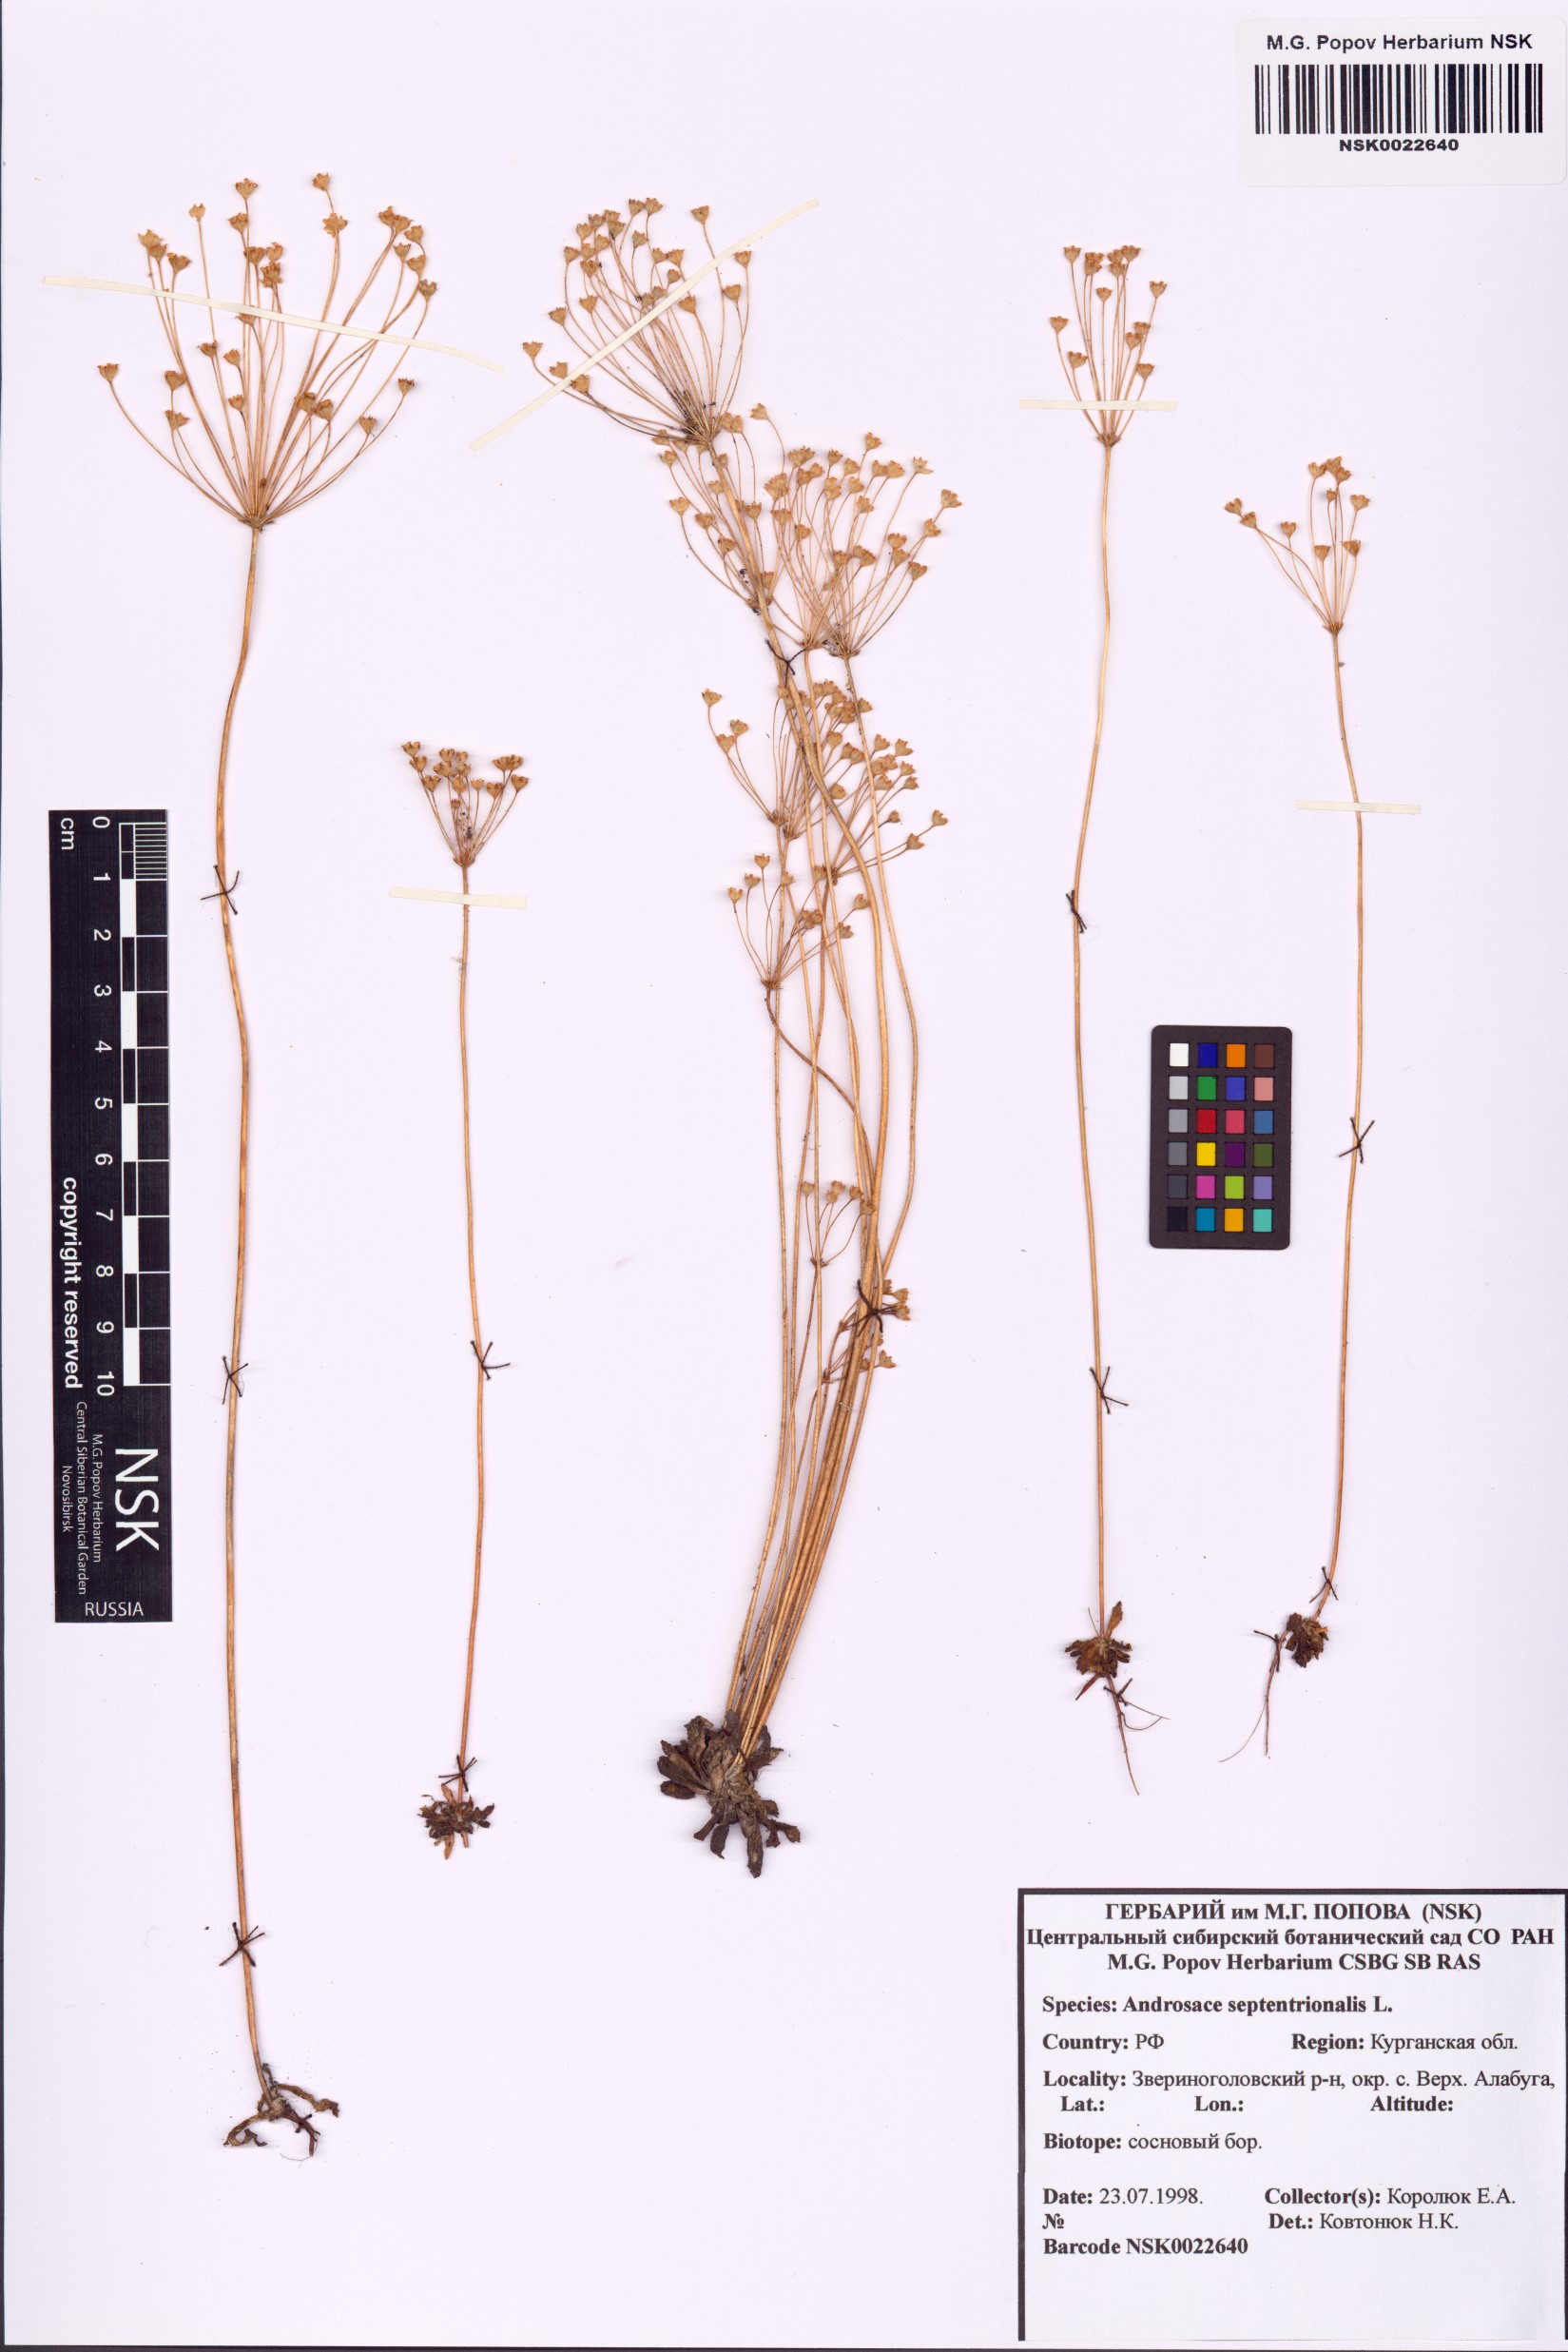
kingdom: Plantae
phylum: Tracheophyta
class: Magnoliopsida
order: Ericales
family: Primulaceae
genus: Androsace
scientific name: Androsace septentrionalis
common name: Hairy northern fairy-candelabra
